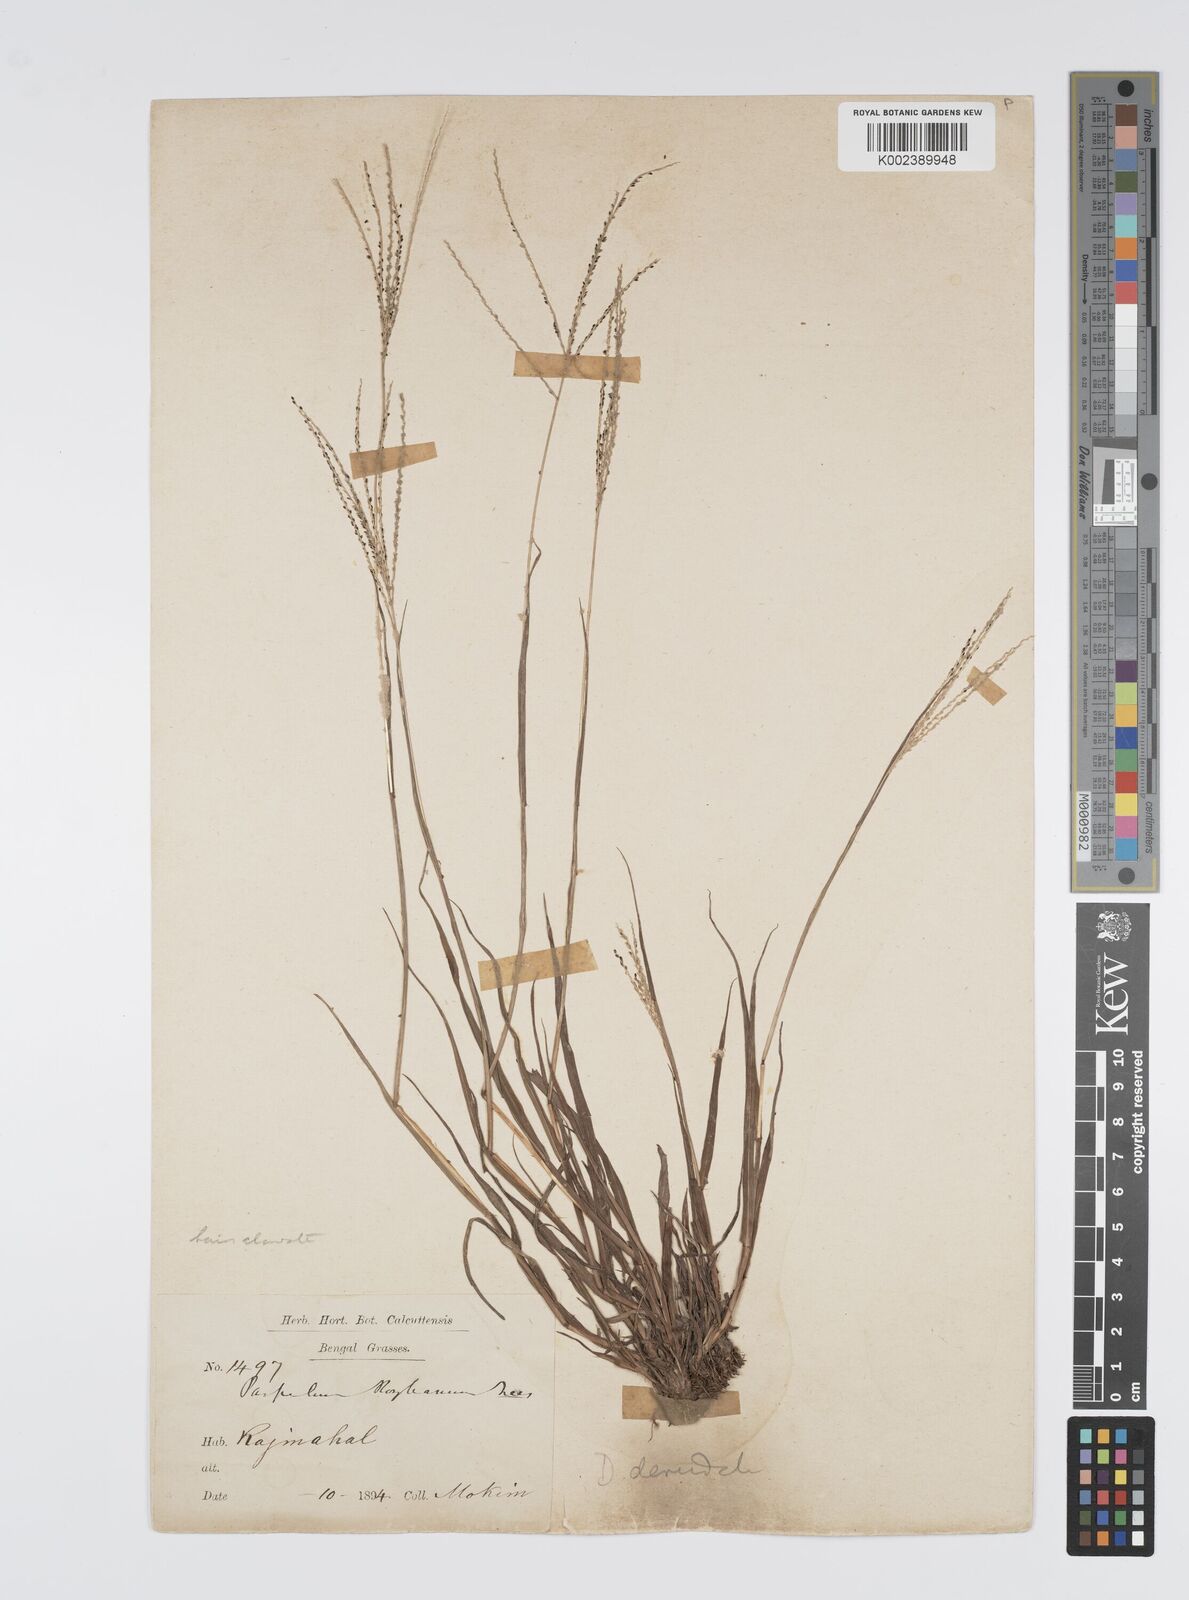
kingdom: Plantae
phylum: Tracheophyta
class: Liliopsida
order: Poales
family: Poaceae
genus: Digitaria
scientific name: Digitaria stricta
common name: Crabgrass
